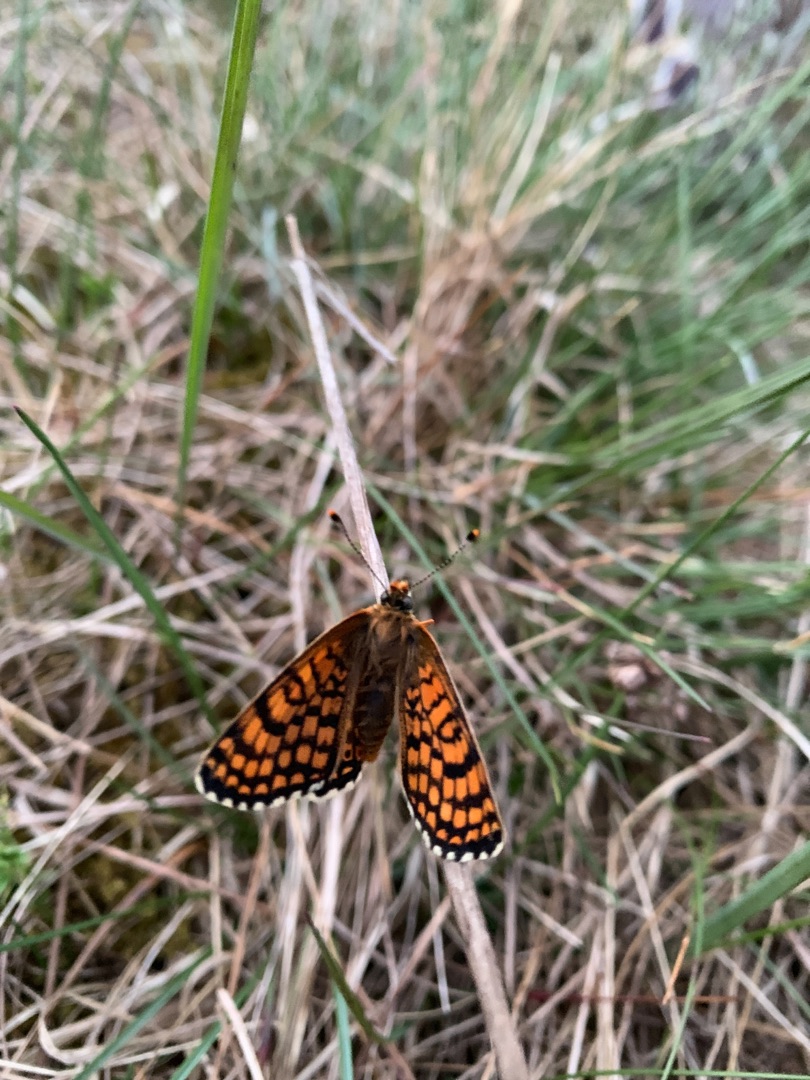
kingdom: Animalia
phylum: Arthropoda
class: Insecta
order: Lepidoptera
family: Nymphalidae
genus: Melitaea
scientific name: Melitaea cinxia
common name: Okkergul pletvinge
